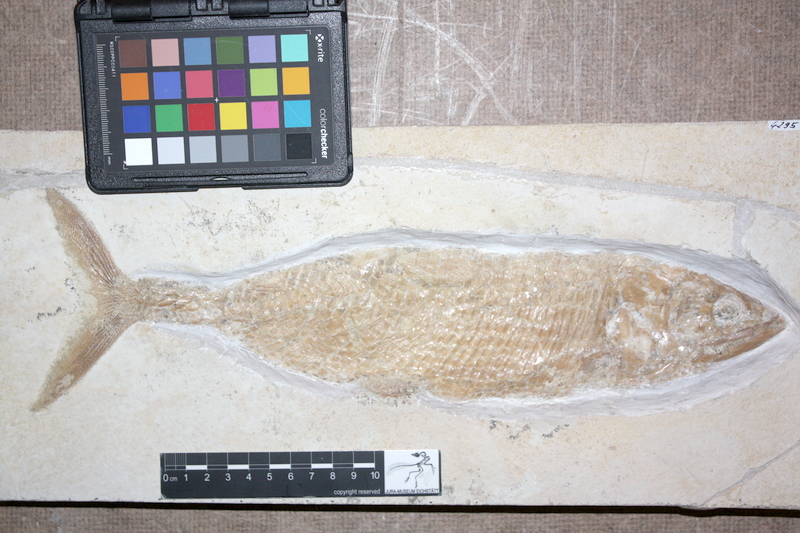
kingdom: Animalia
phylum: Chordata
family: Ankylophoridae
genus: Siemensichthys
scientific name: Siemensichthys macrocephalus
